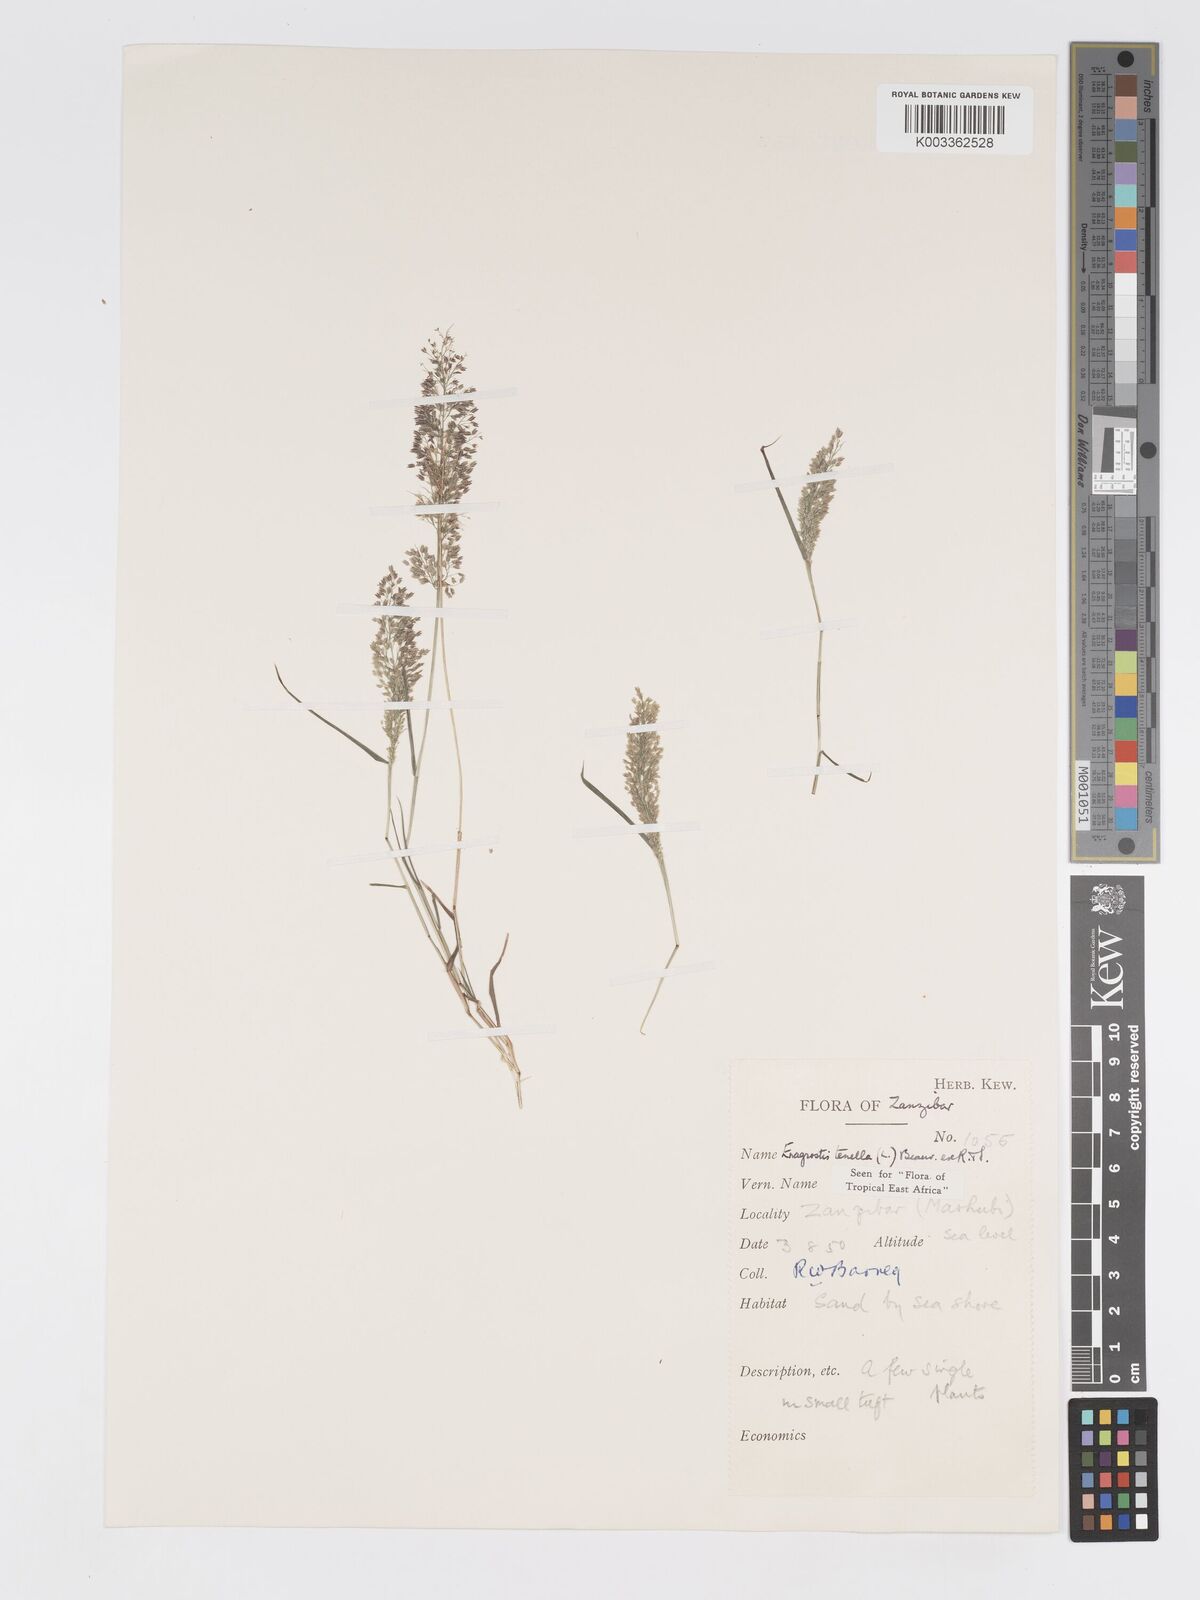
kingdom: Plantae
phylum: Tracheophyta
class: Liliopsida
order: Poales
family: Poaceae
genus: Eragrostis
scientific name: Eragrostis tenella
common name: Japanese lovegrass
